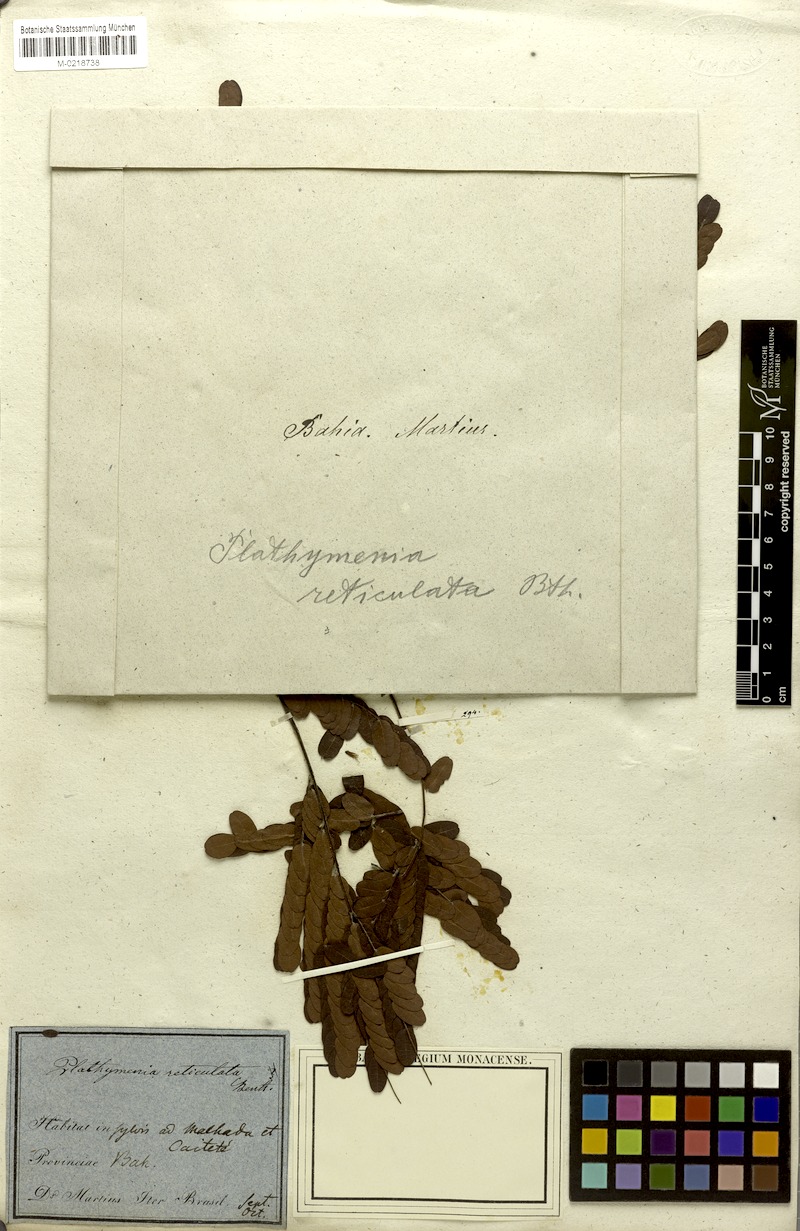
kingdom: Plantae
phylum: Tracheophyta
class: Magnoliopsida
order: Fabales
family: Fabaceae
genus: Plathymenia
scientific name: Plathymenia reticulata
